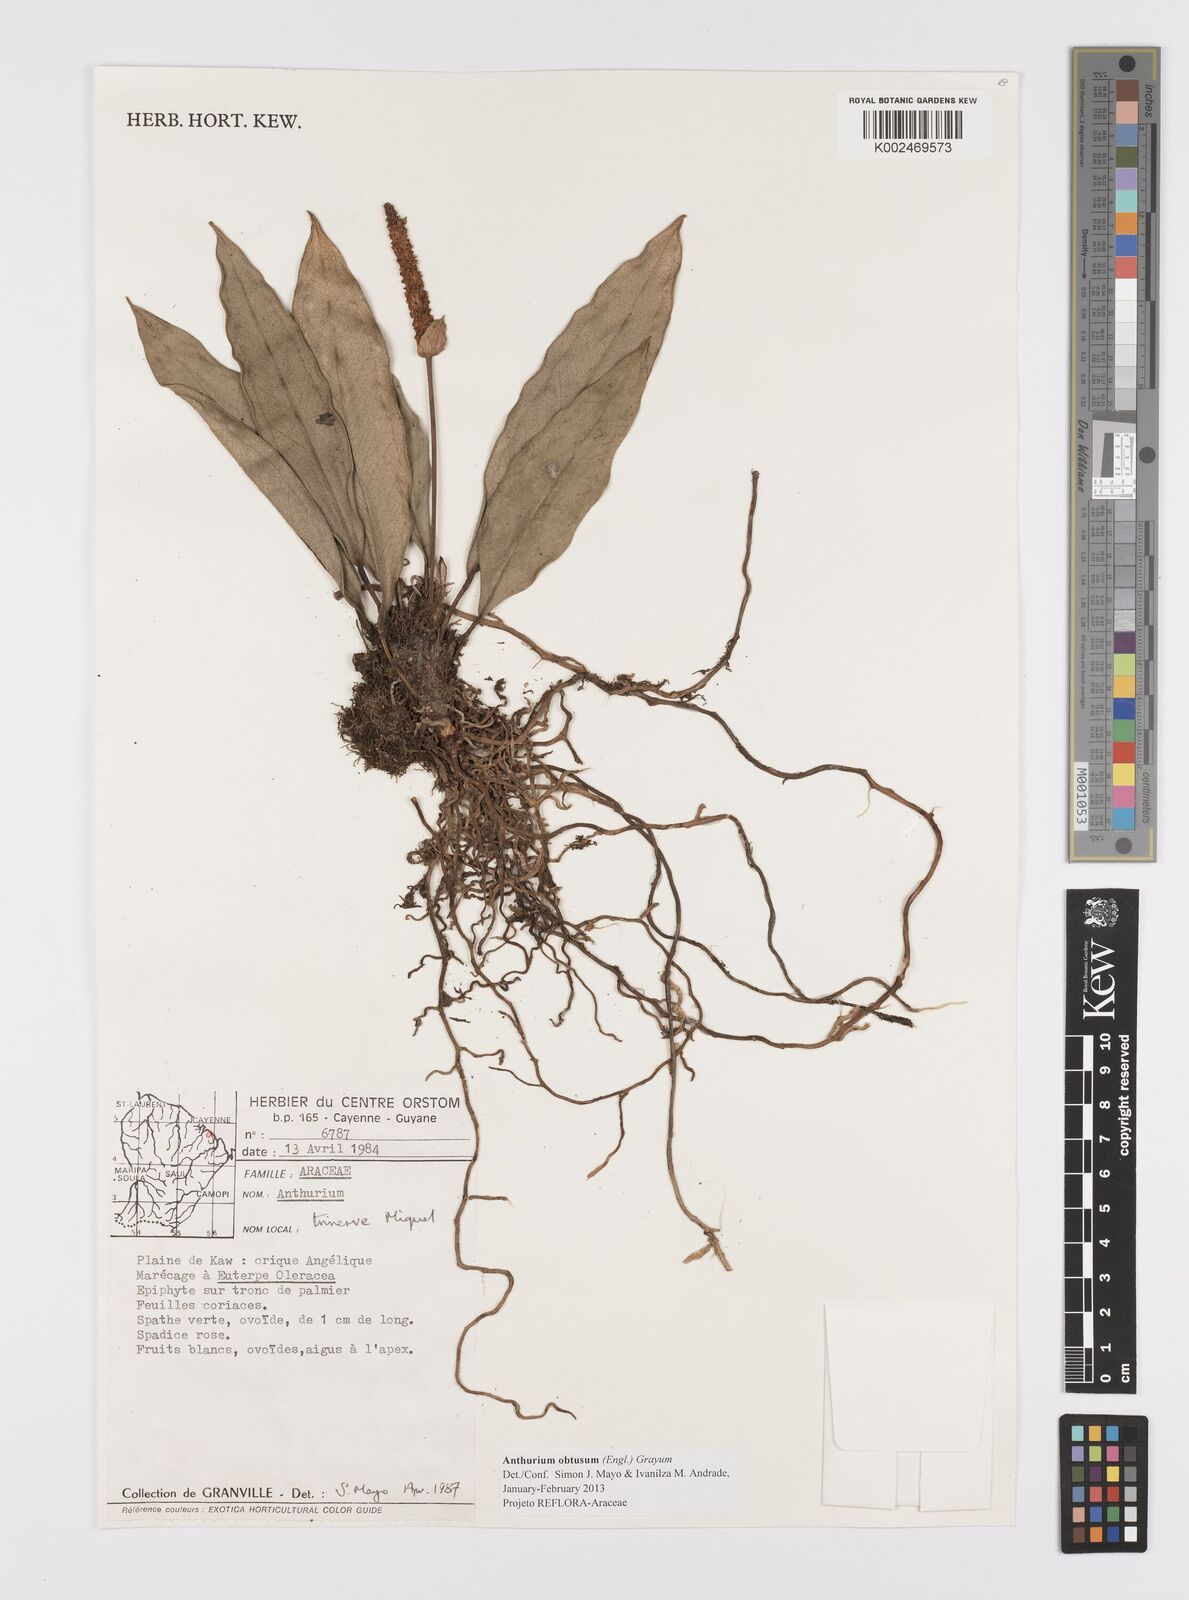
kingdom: Plantae
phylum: Tracheophyta
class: Liliopsida
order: Alismatales
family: Araceae
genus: Anthurium
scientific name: Anthurium obtusum
